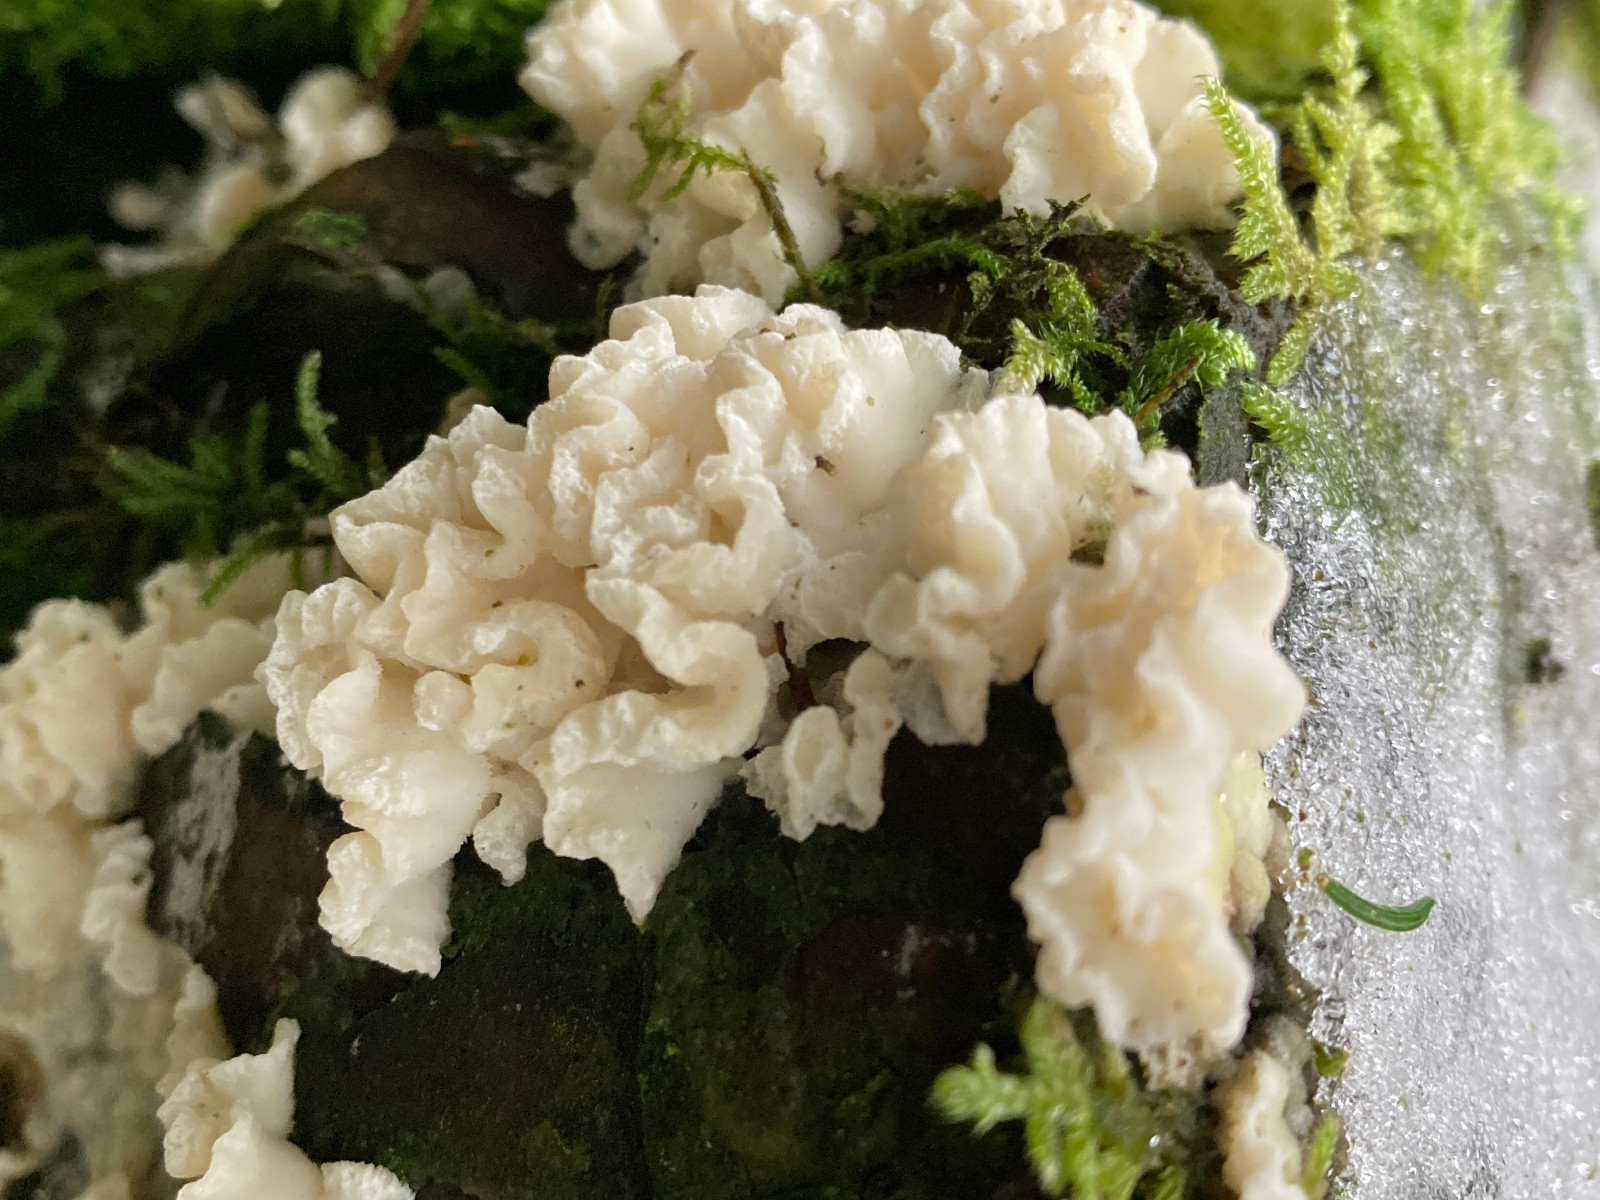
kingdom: Fungi
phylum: Basidiomycota
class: Agaricomycetes
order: Polyporales
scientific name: Polyporales
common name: poresvampordenen
